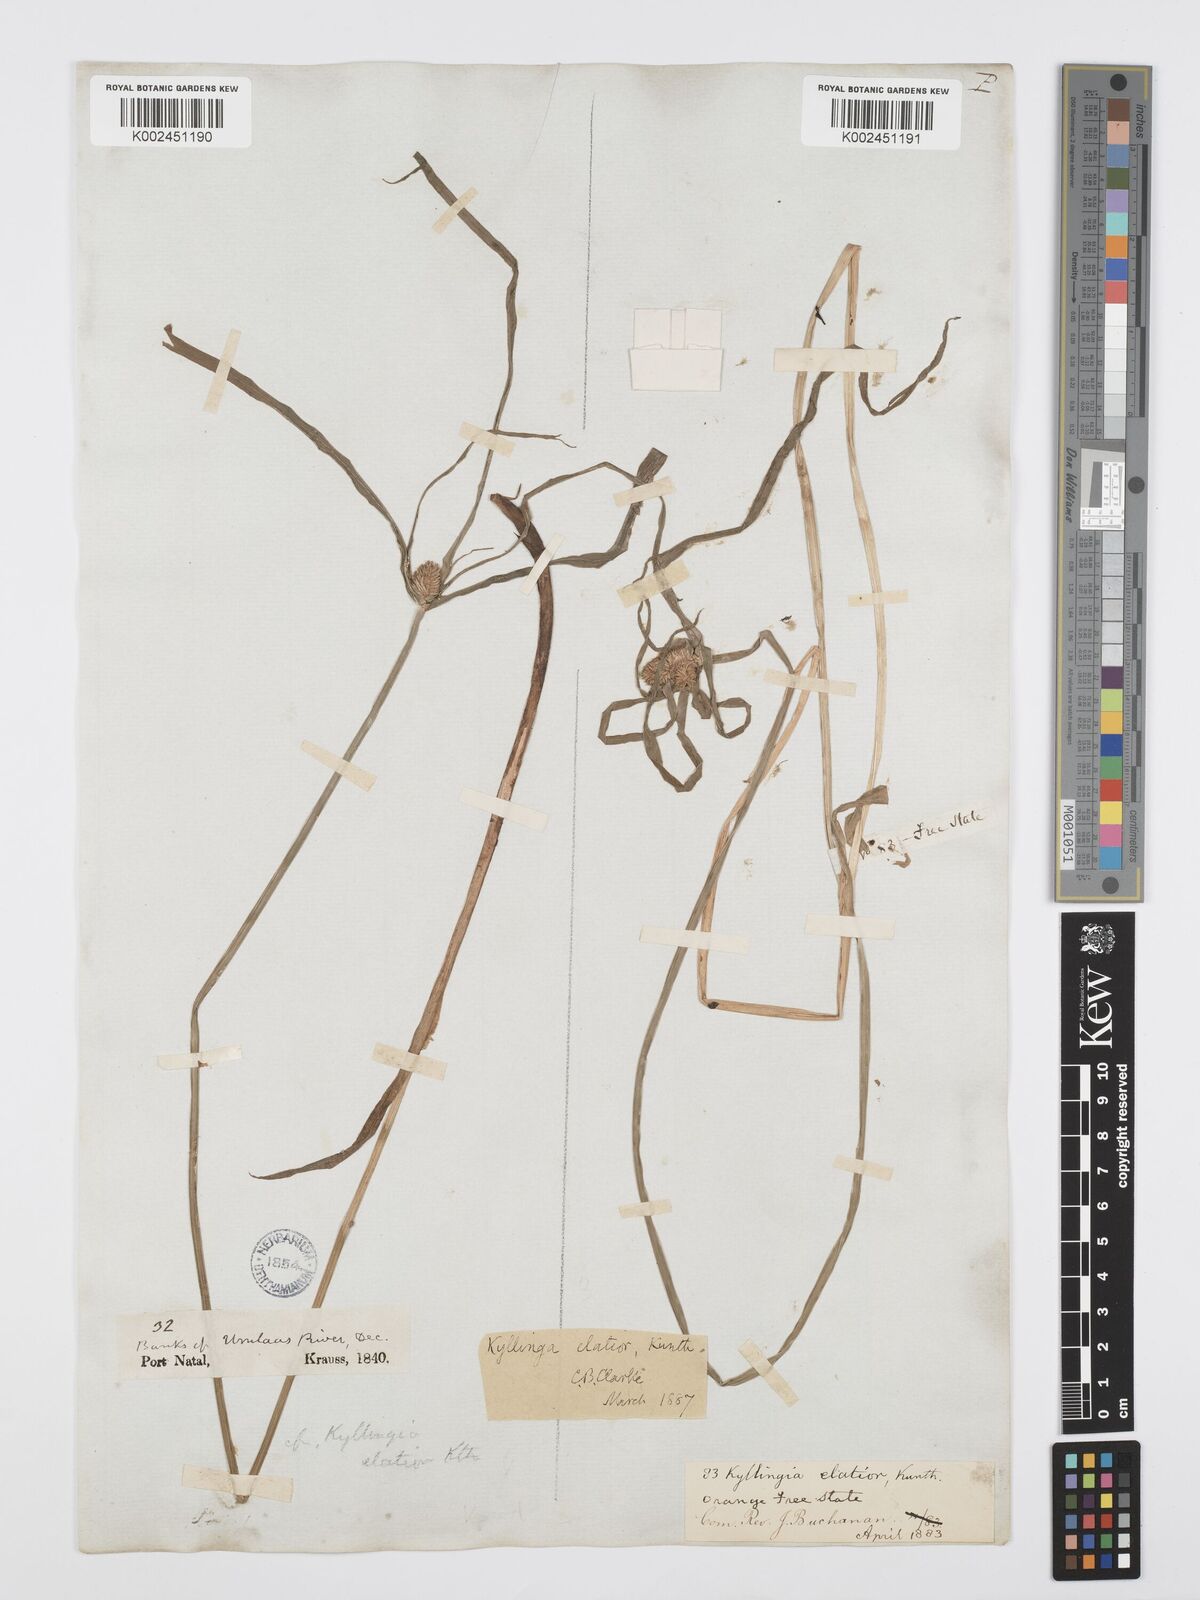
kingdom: Plantae
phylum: Tracheophyta
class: Liliopsida
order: Poales
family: Cyperaceae
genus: Cyperus
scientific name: Cyperus ruwenzoriensis
